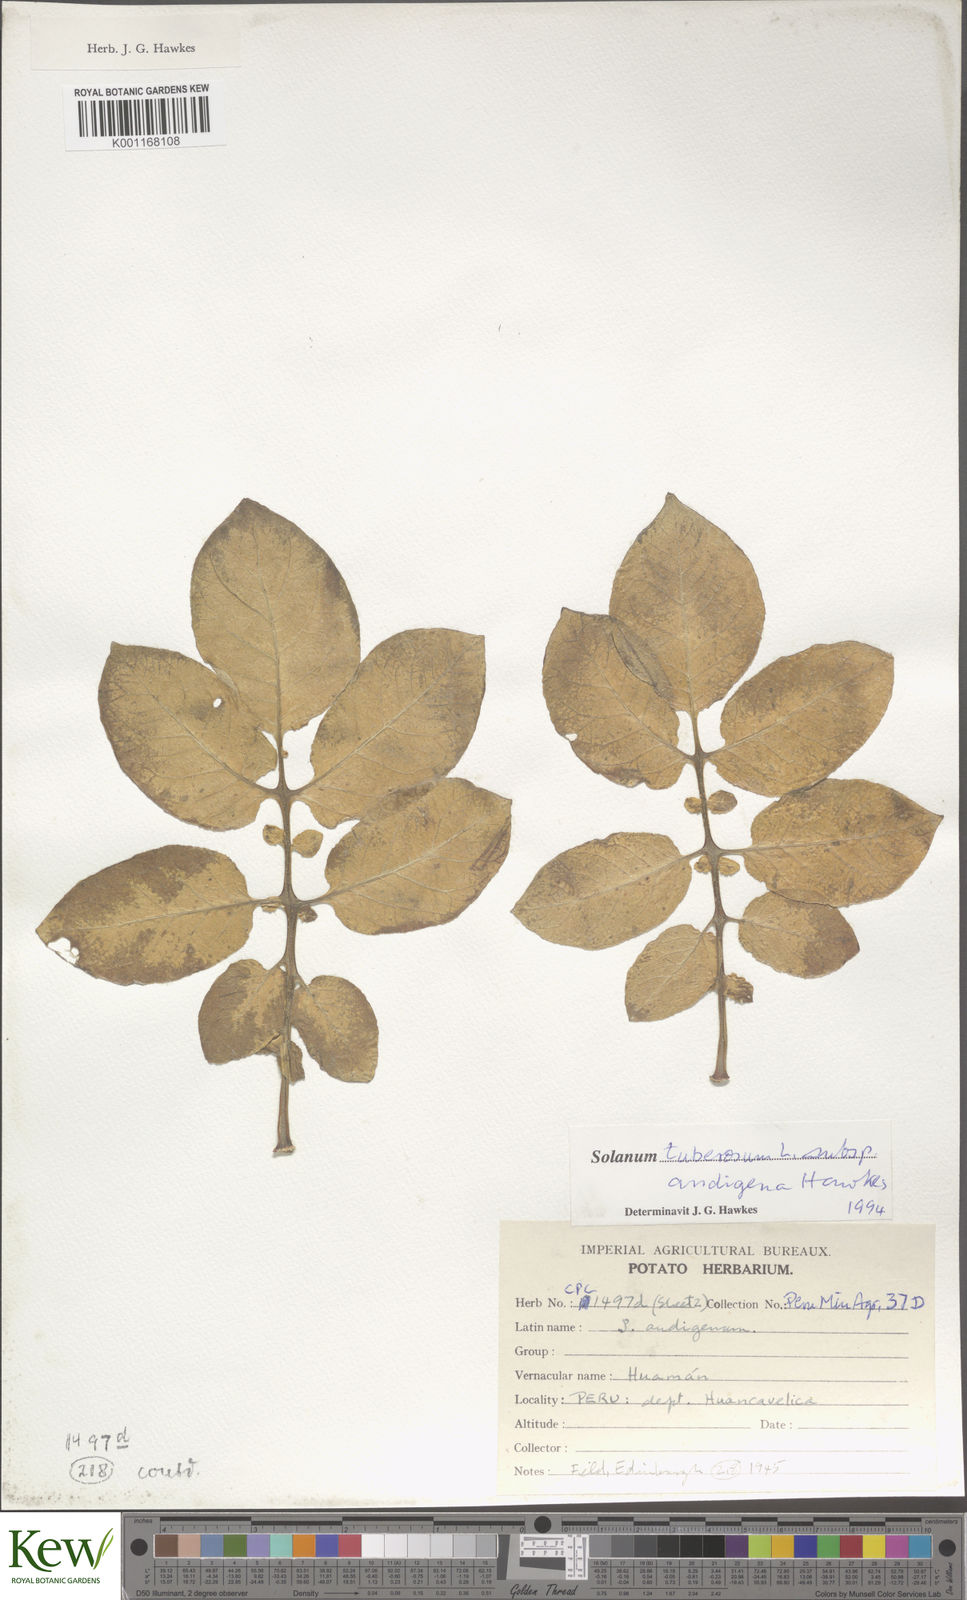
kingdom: Plantae
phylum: Tracheophyta
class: Magnoliopsida
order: Solanales
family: Solanaceae
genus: Solanum
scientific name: Solanum tuberosum
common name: Potato
